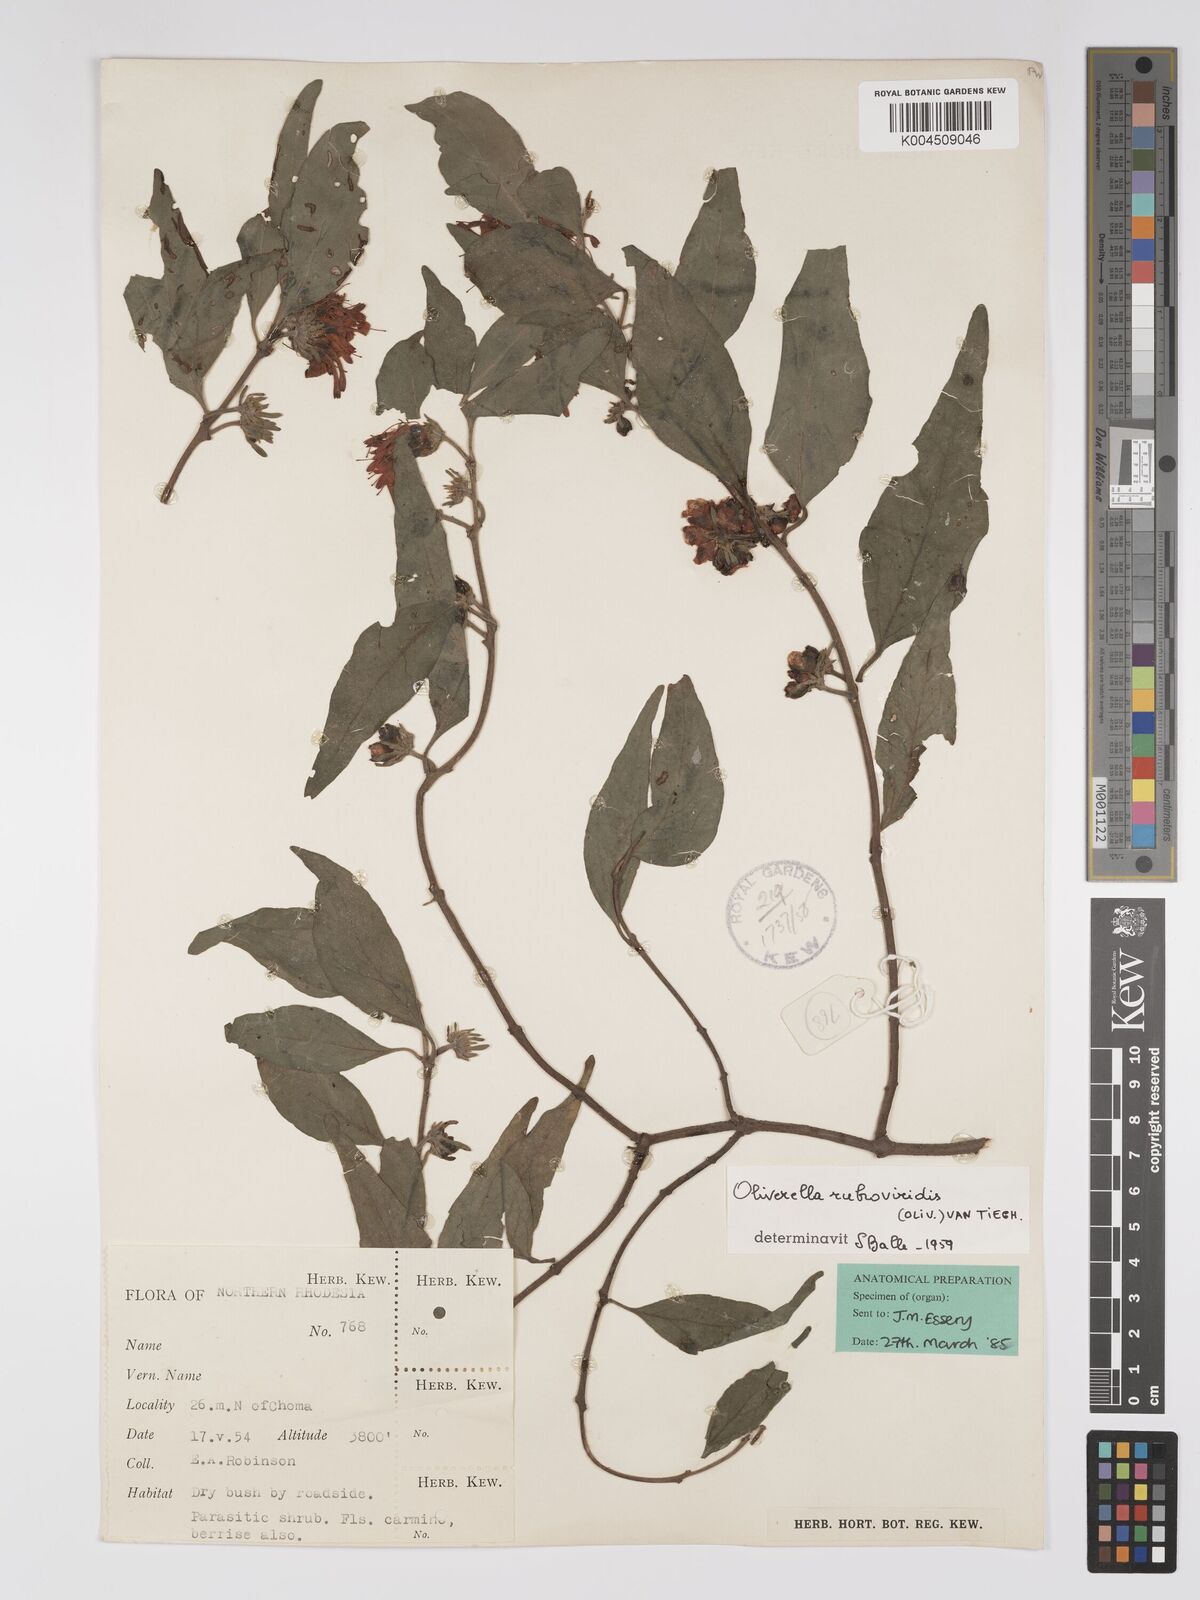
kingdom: Plantae
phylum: Tracheophyta
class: Magnoliopsida
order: Santalales
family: Loranthaceae
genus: Oliverella
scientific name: Oliverella rubroviridis
